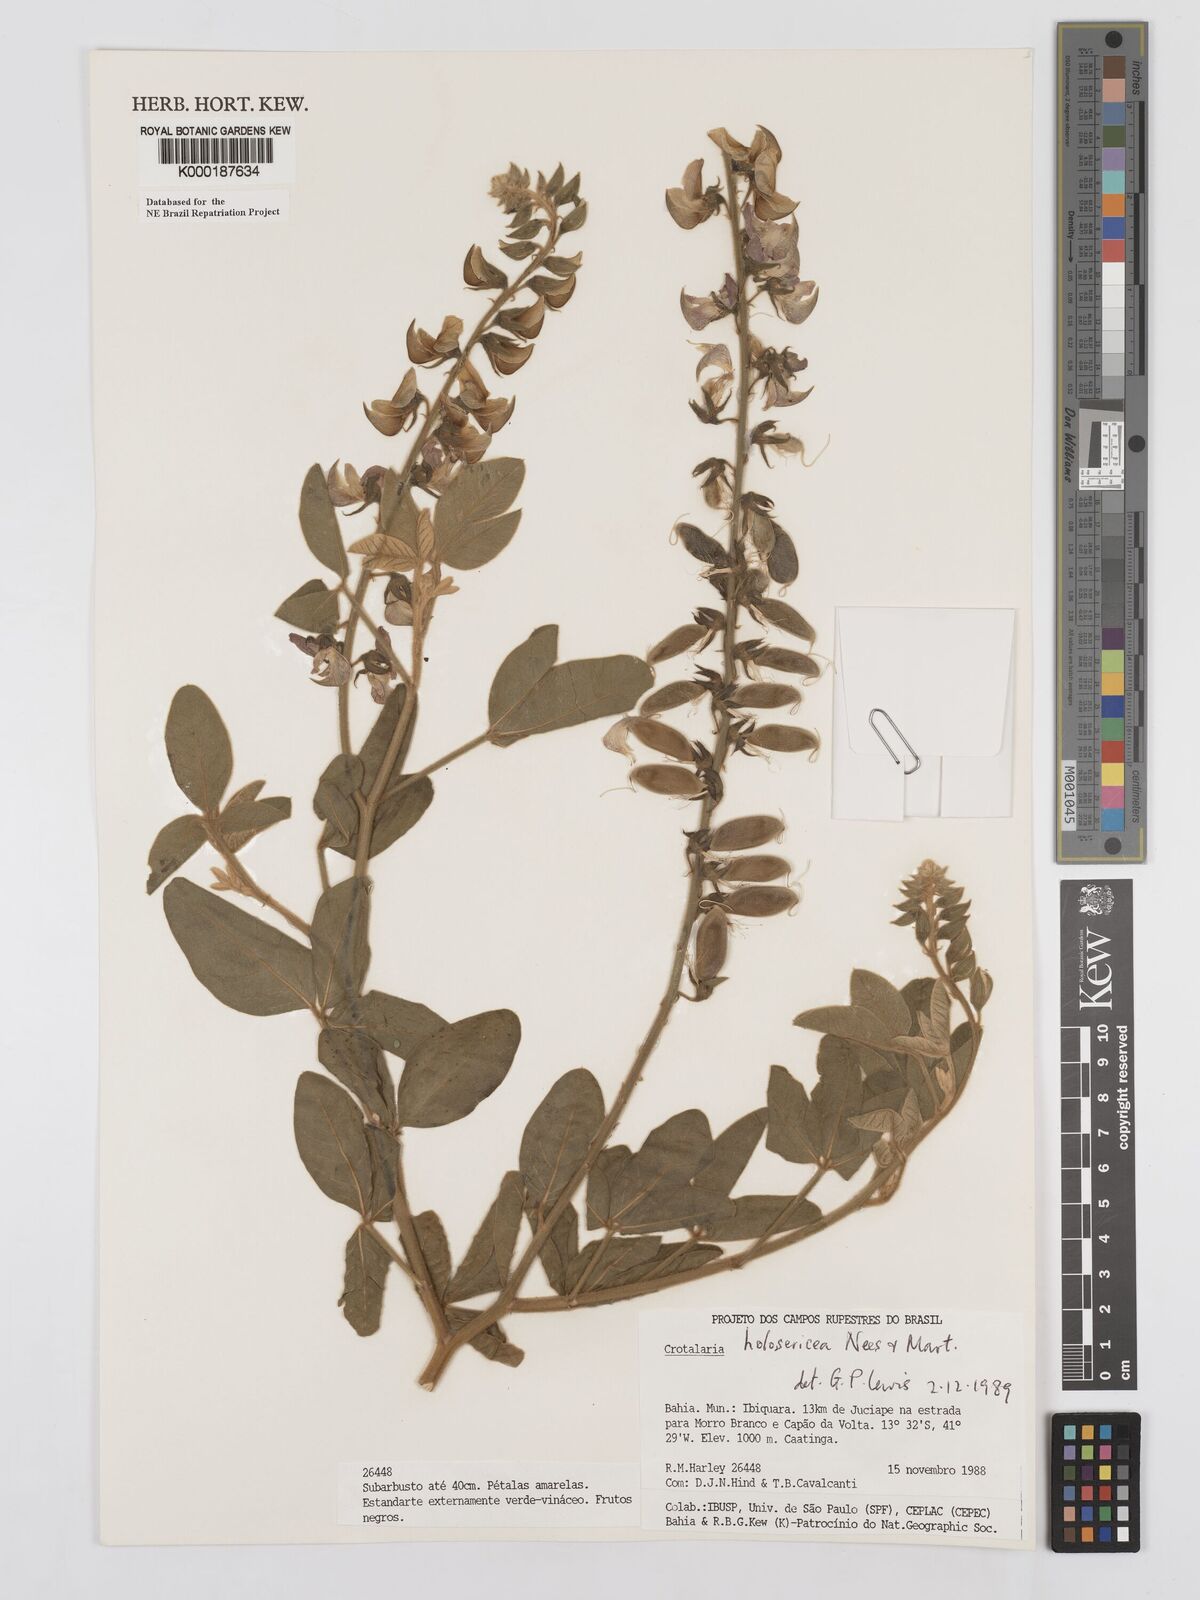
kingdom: Plantae
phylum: Tracheophyta
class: Magnoliopsida
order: Fabales
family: Fabaceae
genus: Crotalaria
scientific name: Crotalaria holosericea
